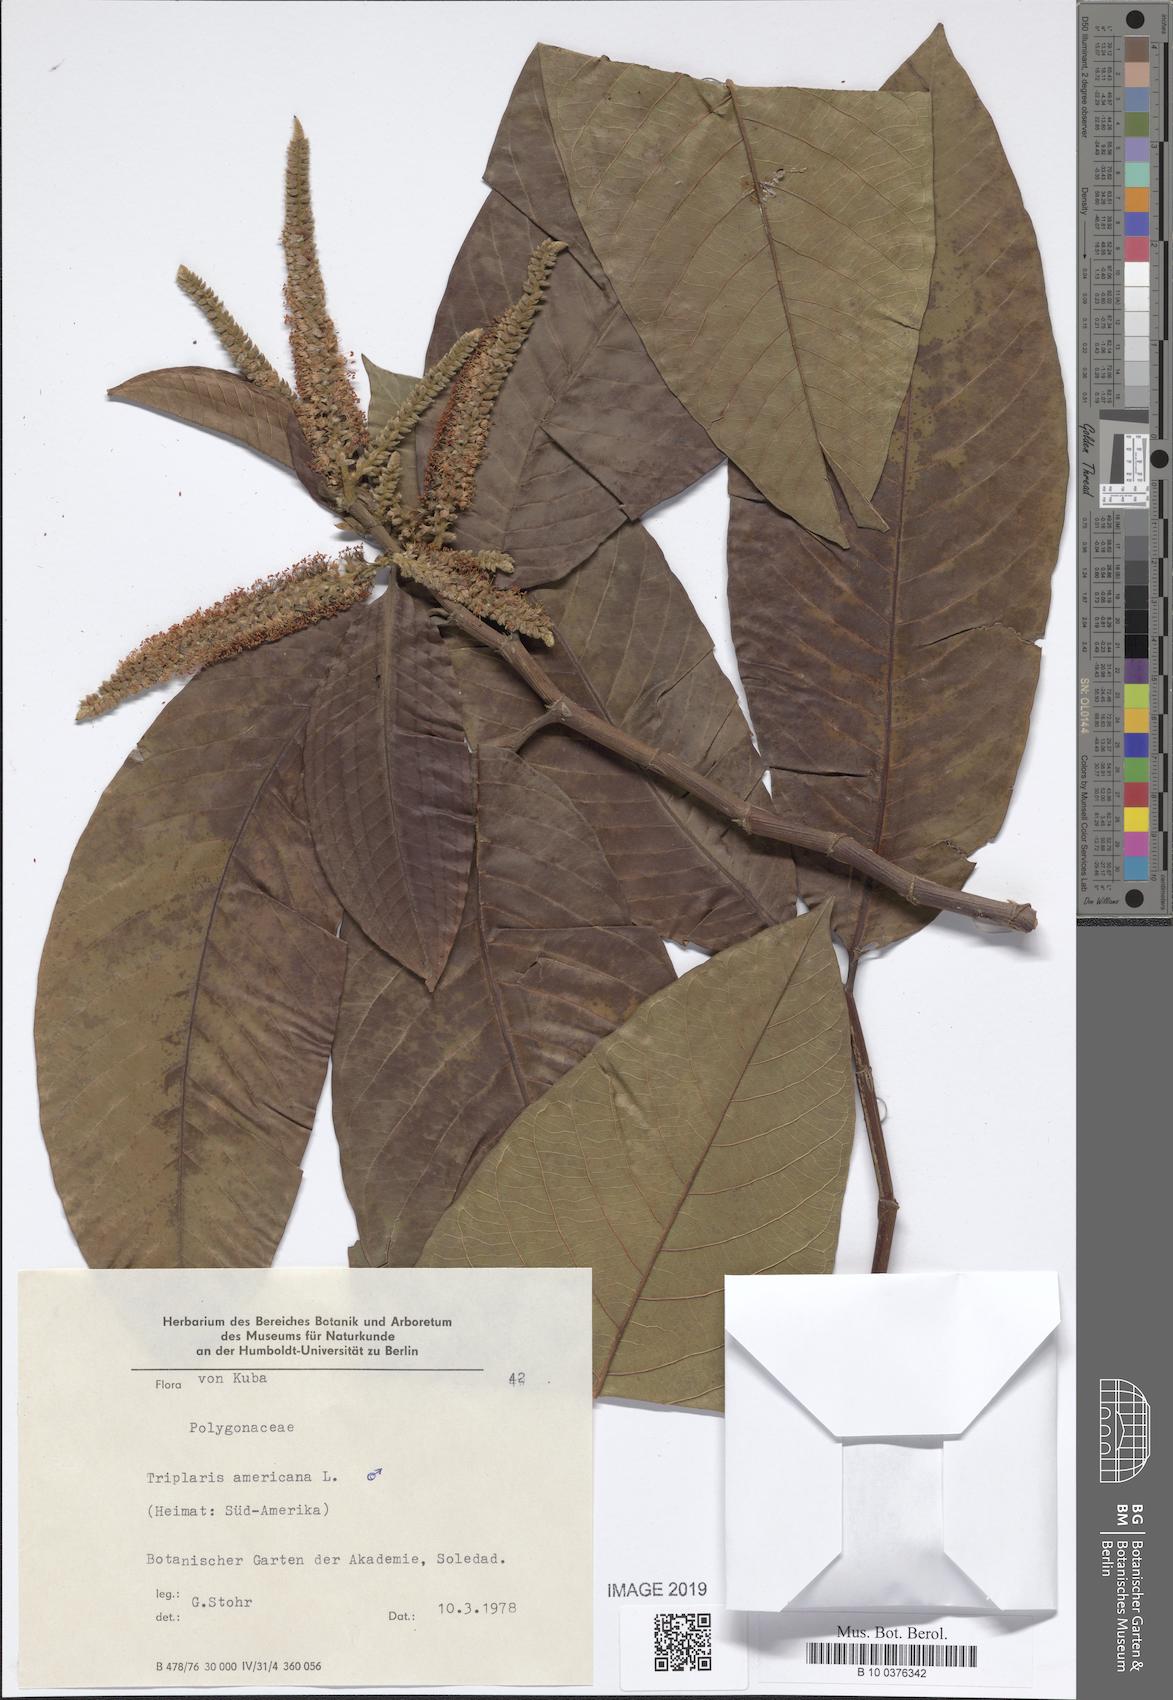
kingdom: Plantae
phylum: Tracheophyta
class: Magnoliopsida
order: Caryophyllales
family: Polygonaceae
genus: Triplaris
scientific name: Triplaris americana
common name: Ant-tree
